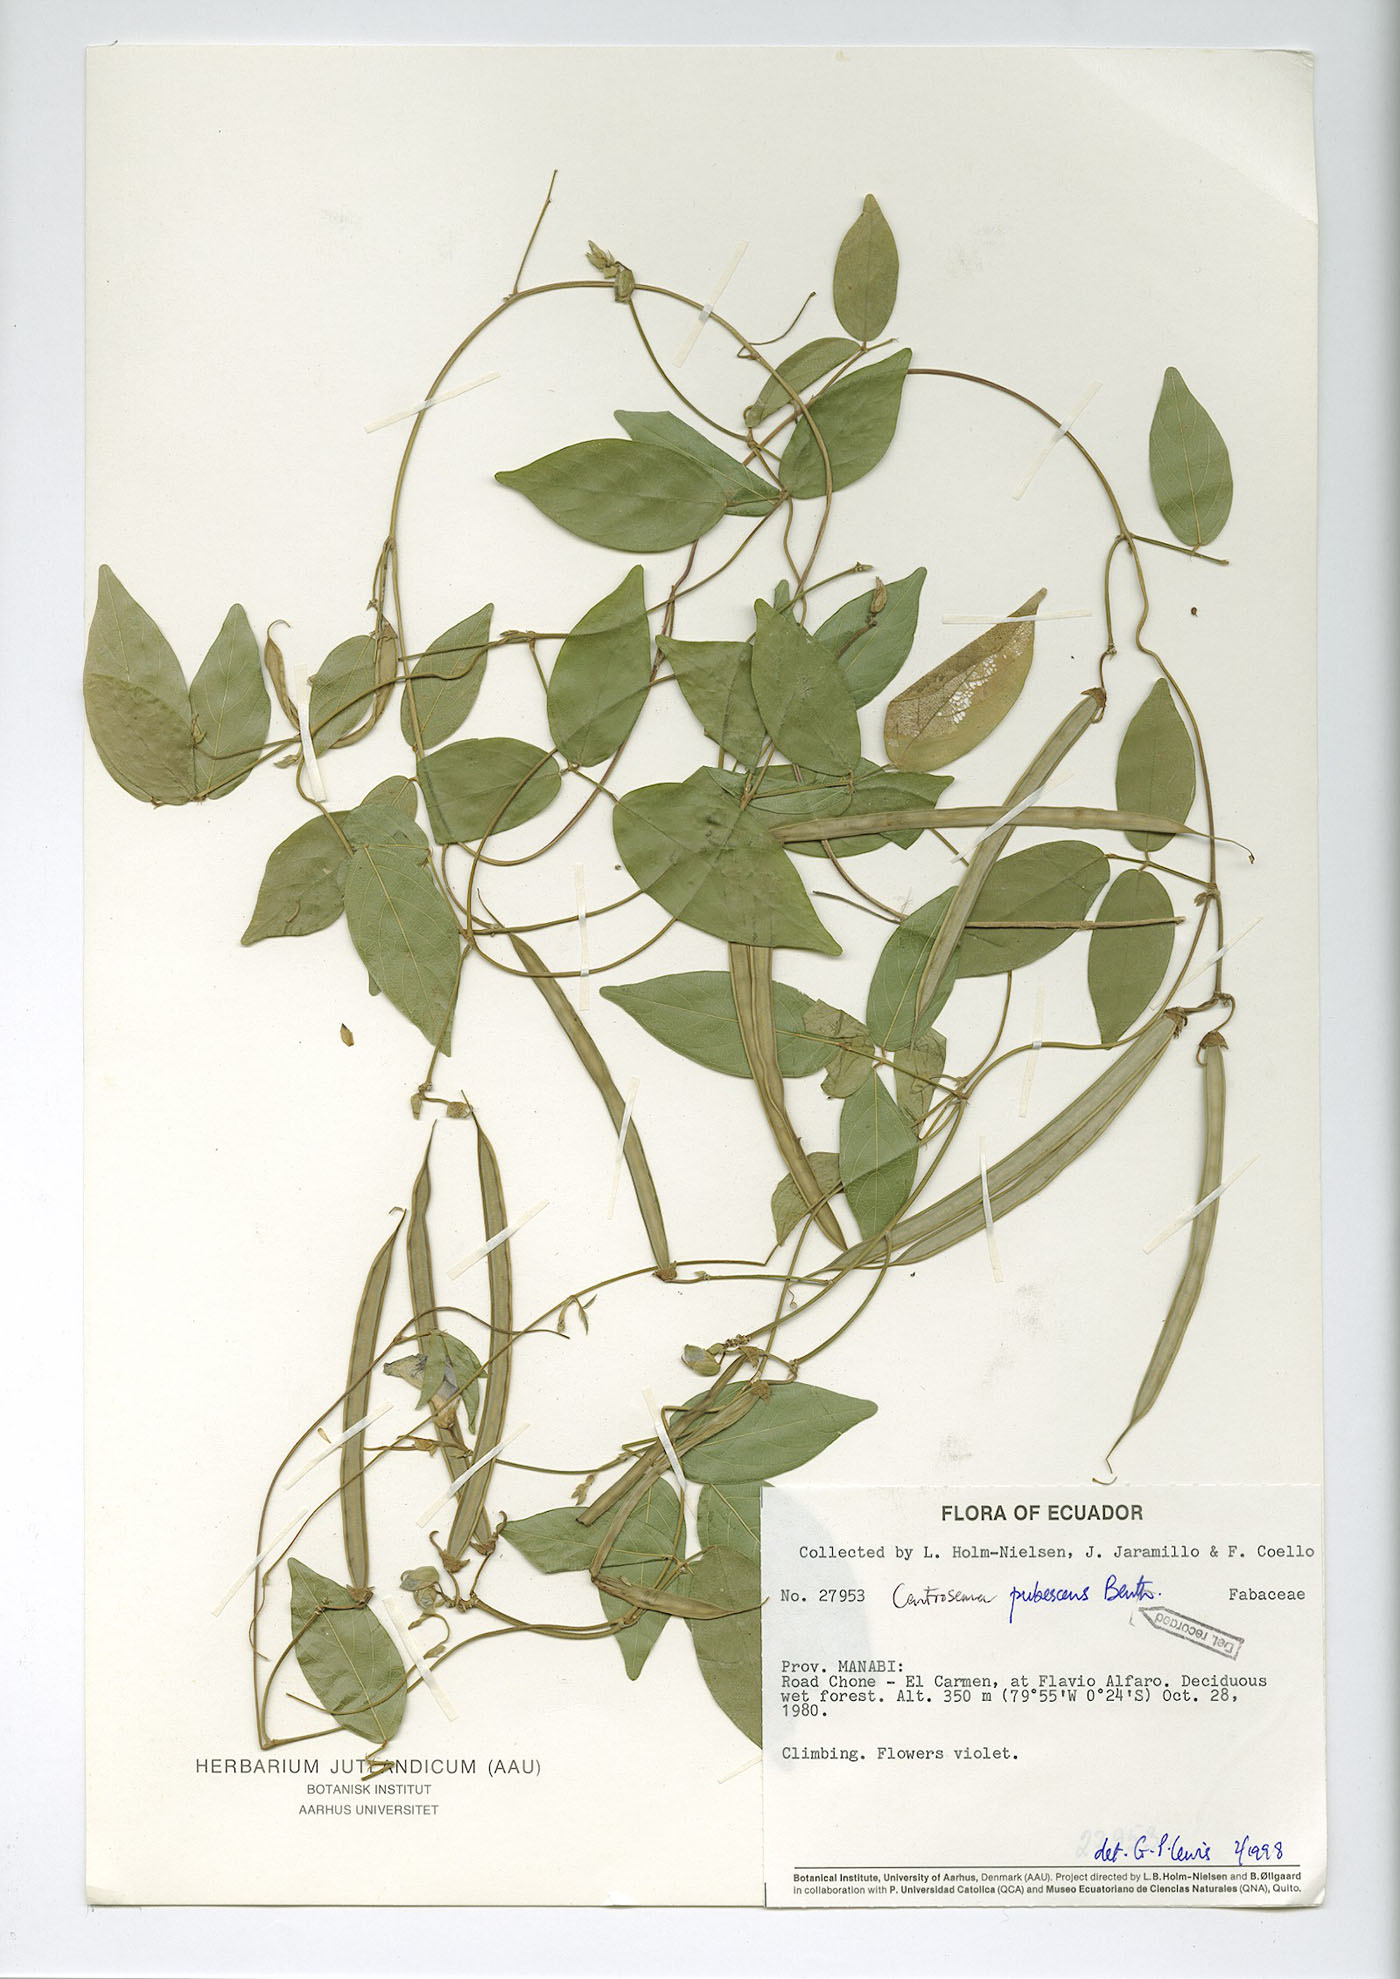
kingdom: Plantae
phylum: Tracheophyta
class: Magnoliopsida
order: Fabales
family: Fabaceae
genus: Centrosema
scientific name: Centrosema molle
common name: Soft butterfly pea
